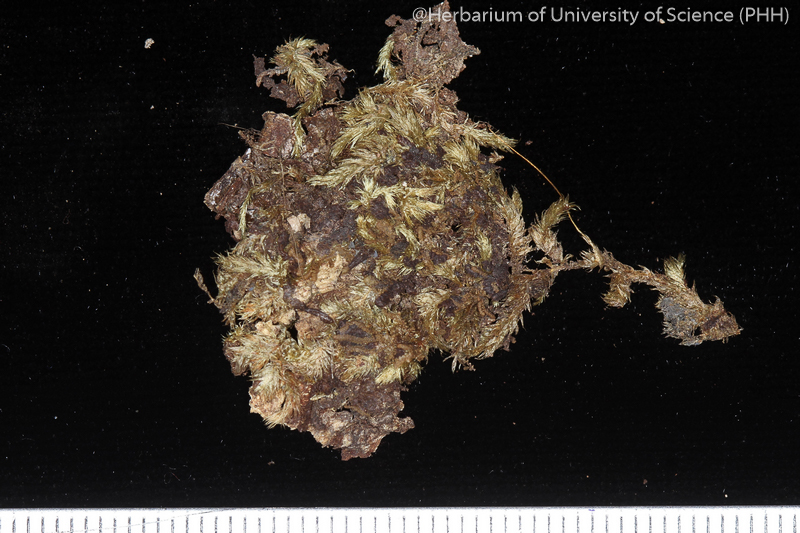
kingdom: Plantae
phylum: Bryophyta
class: Bryopsida
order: Hypnales
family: Entodontaceae
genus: Mesonodon
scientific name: Mesonodon flavescens
